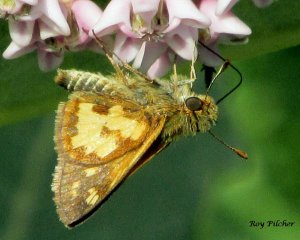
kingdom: Animalia
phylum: Arthropoda
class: Insecta
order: Lepidoptera
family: Hesperiidae
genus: Polites
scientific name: Polites coras
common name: Peck's Skipper
